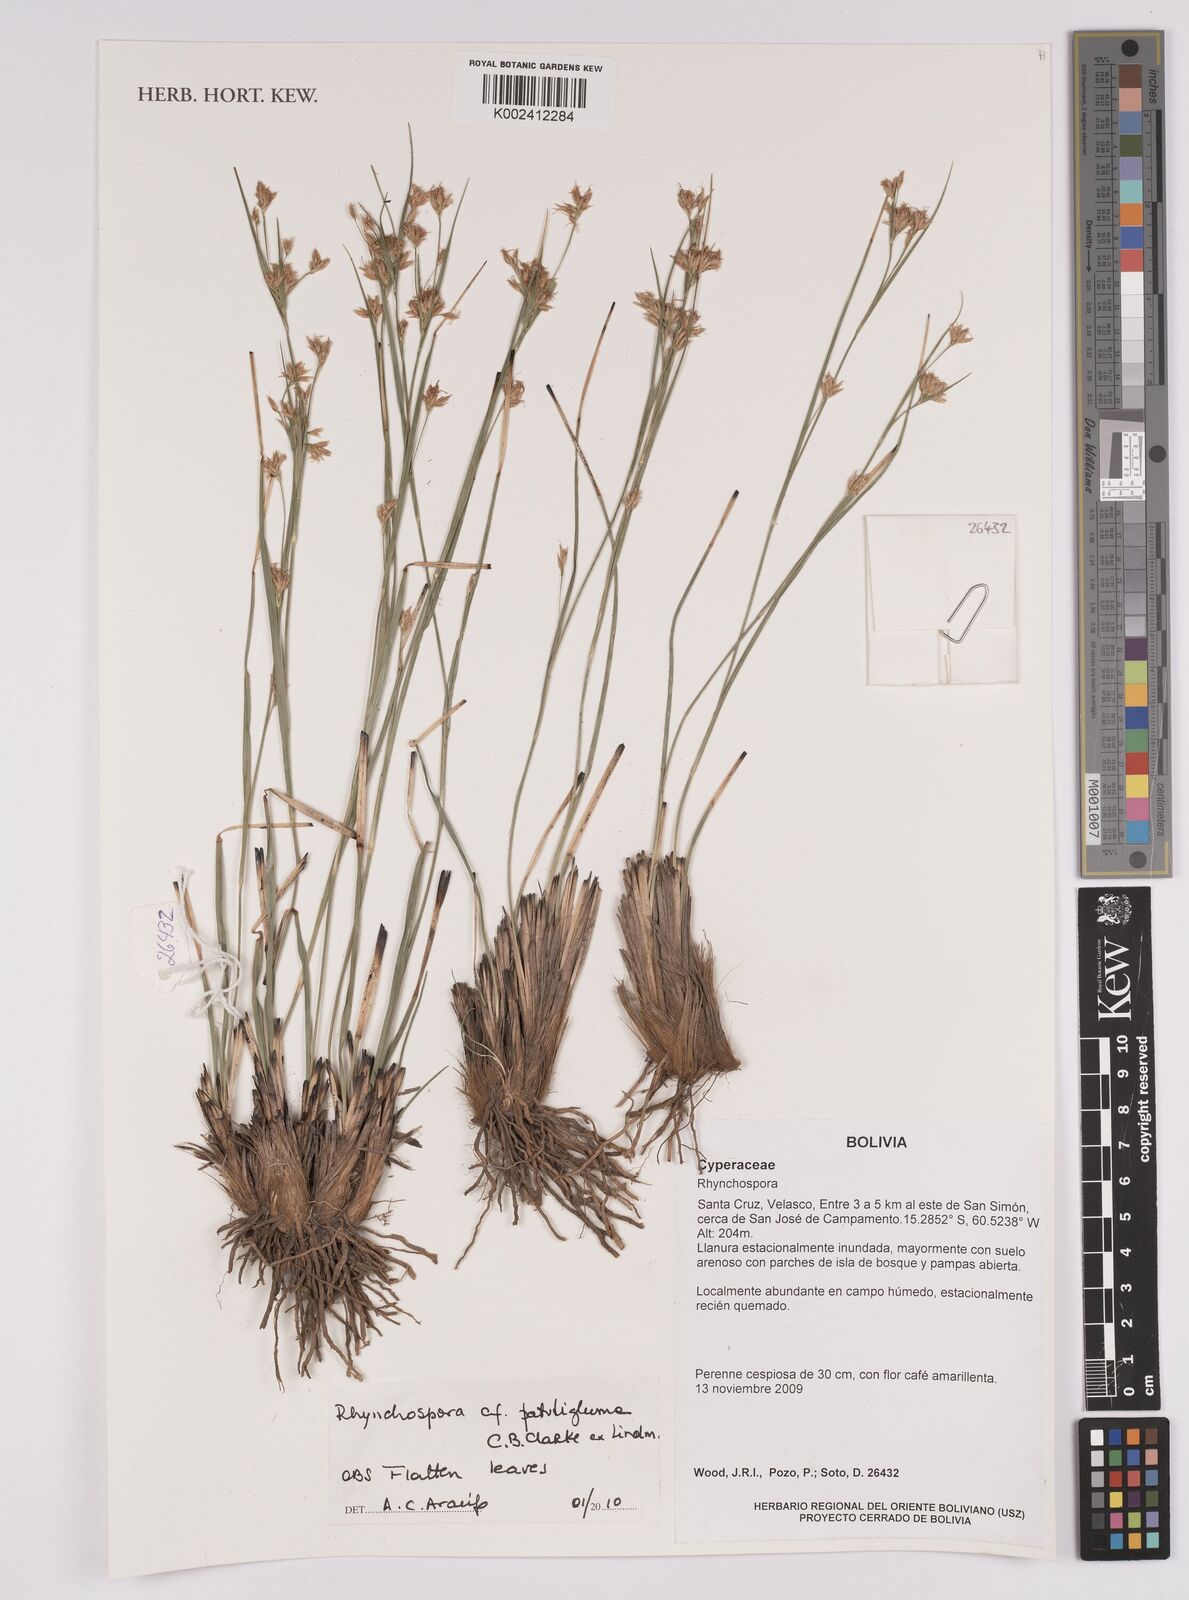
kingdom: Plantae
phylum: Tracheophyta
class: Liliopsida
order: Poales
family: Cyperaceae
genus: Rhynchospora
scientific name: Rhynchospora patuligluma
